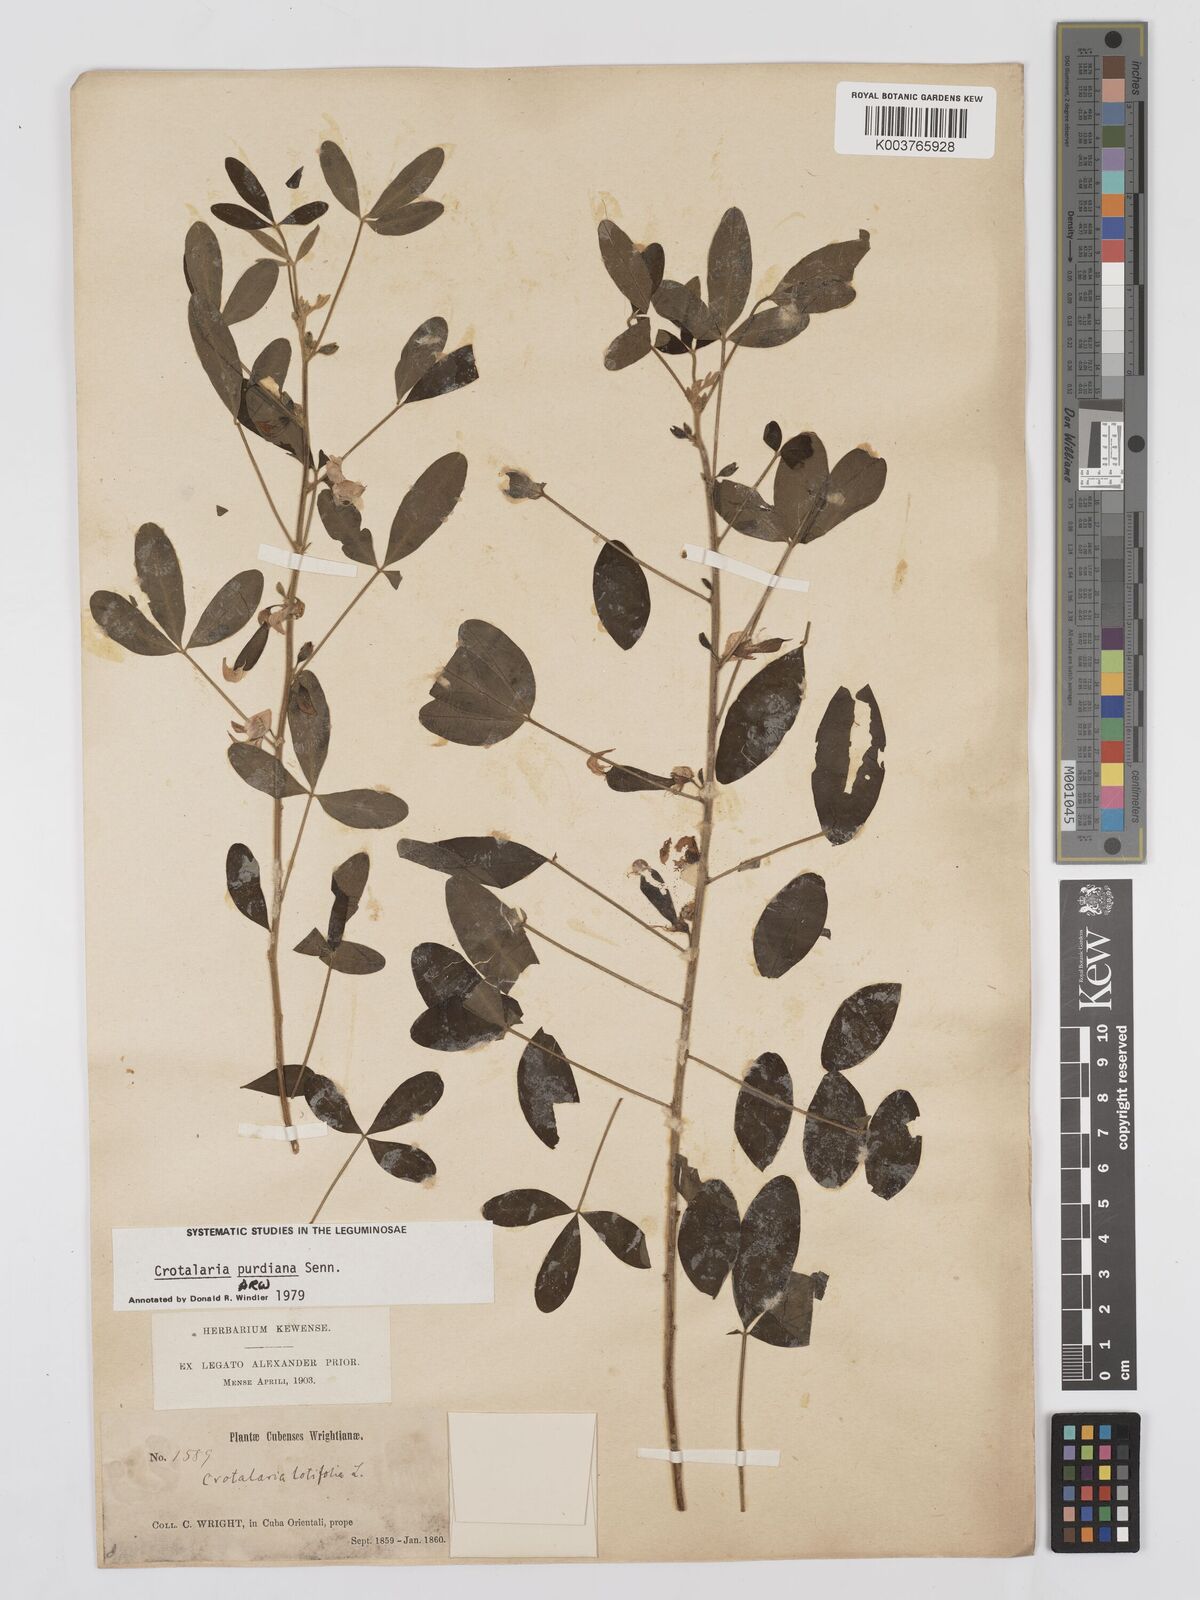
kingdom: Plantae
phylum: Tracheophyta
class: Magnoliopsida
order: Fabales
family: Fabaceae
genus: Crotalaria
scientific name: Crotalaria purdieana
